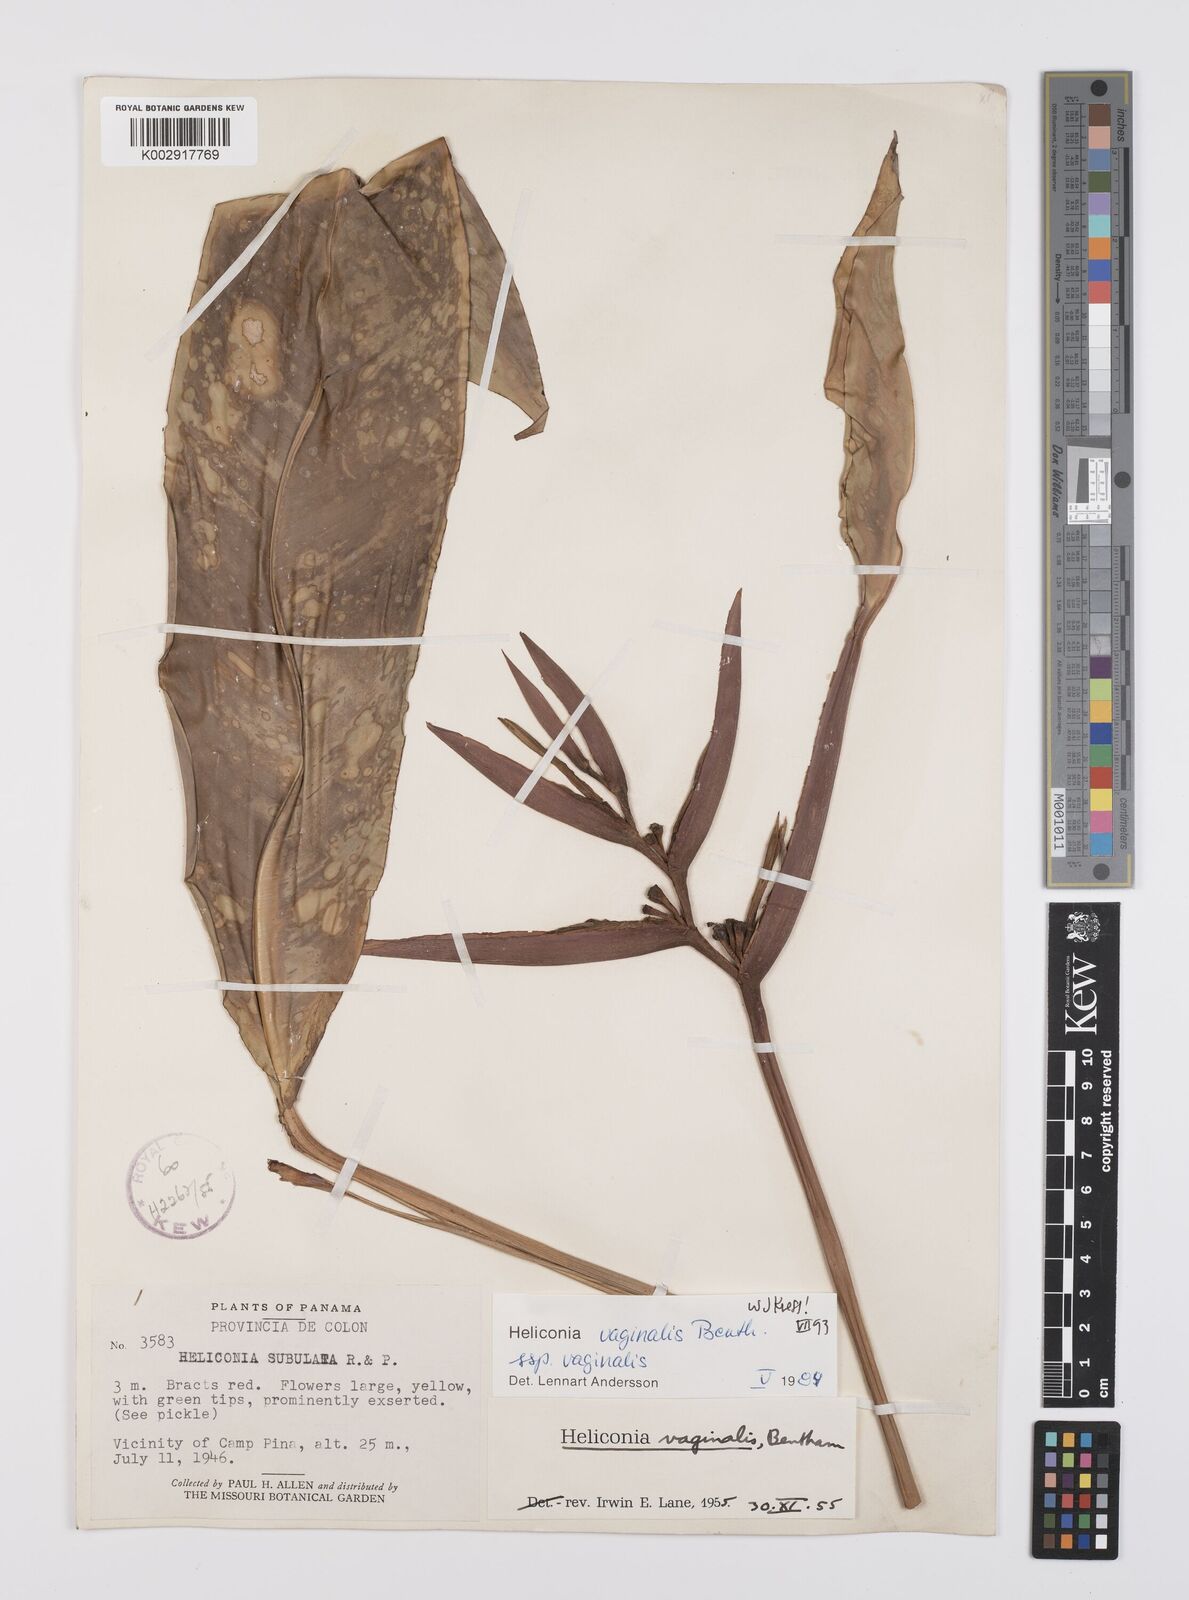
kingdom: Plantae
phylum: Tracheophyta
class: Liliopsida
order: Zingiberales
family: Heliconiaceae
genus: Heliconia
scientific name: Heliconia vaginalis
